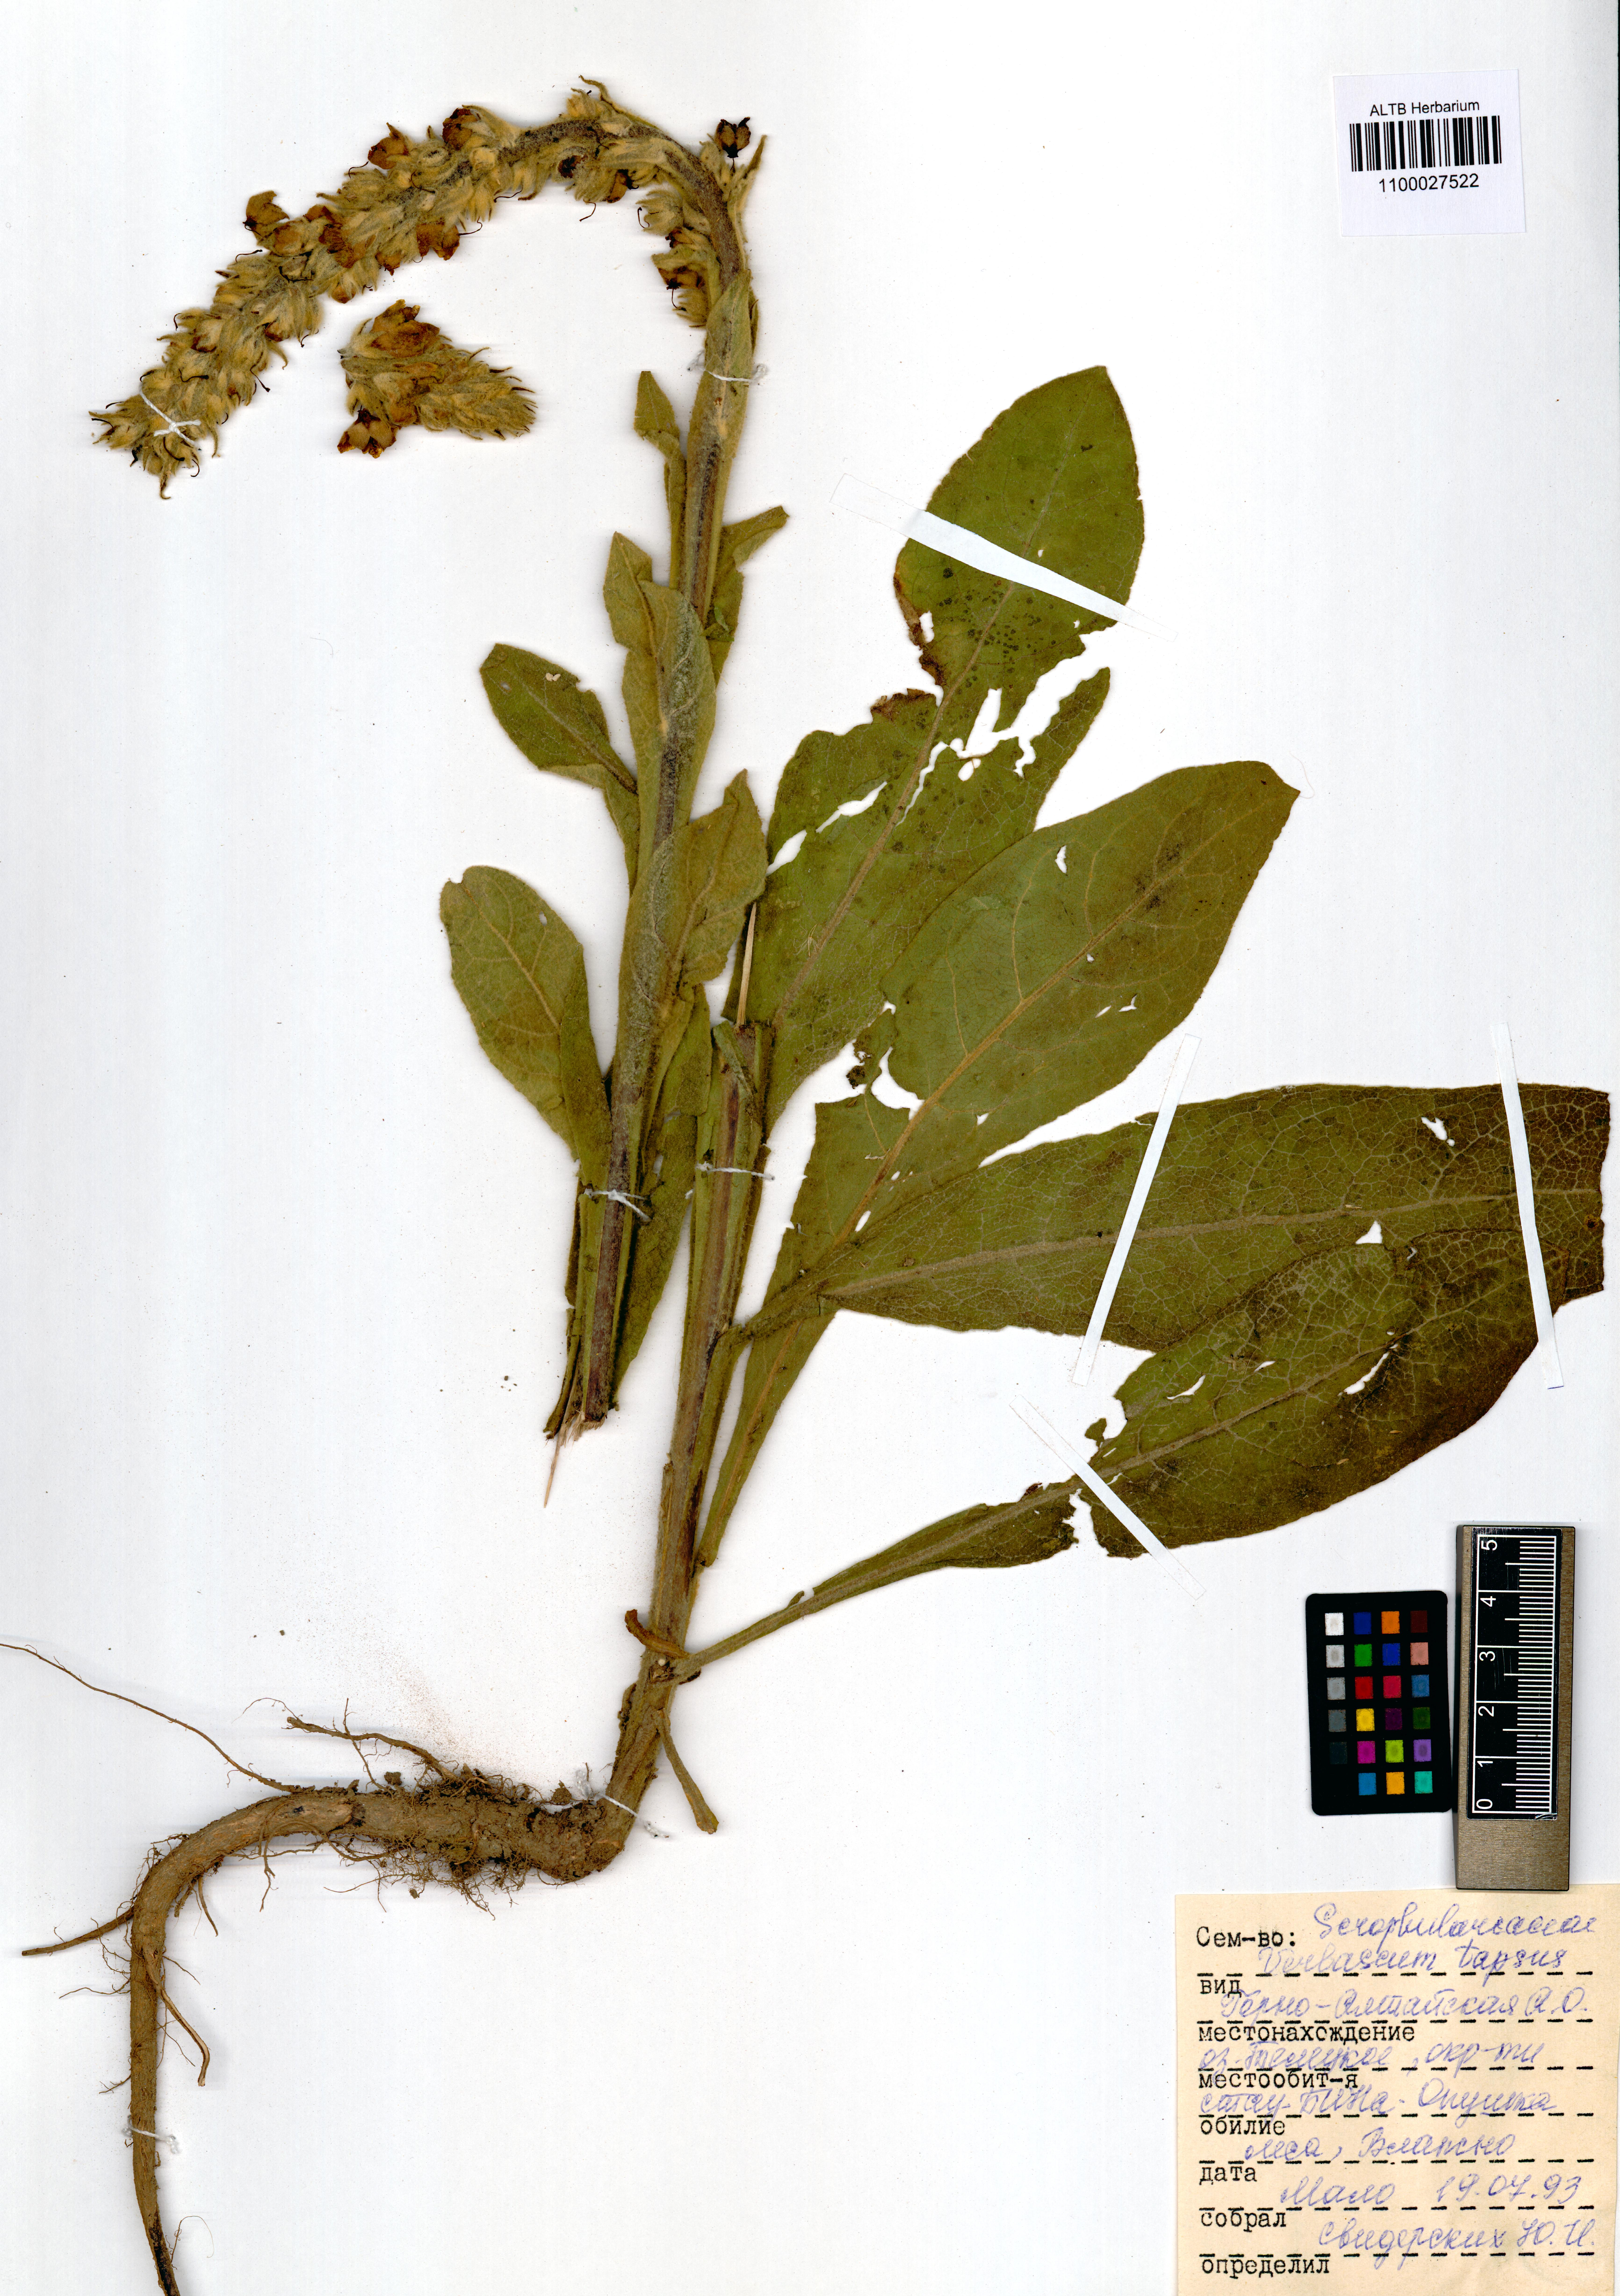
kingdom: Plantae
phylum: Tracheophyta
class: Magnoliopsida
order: Lamiales
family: Scrophulariaceae
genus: Verbascum
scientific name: Verbascum thapsus
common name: Common mullein
